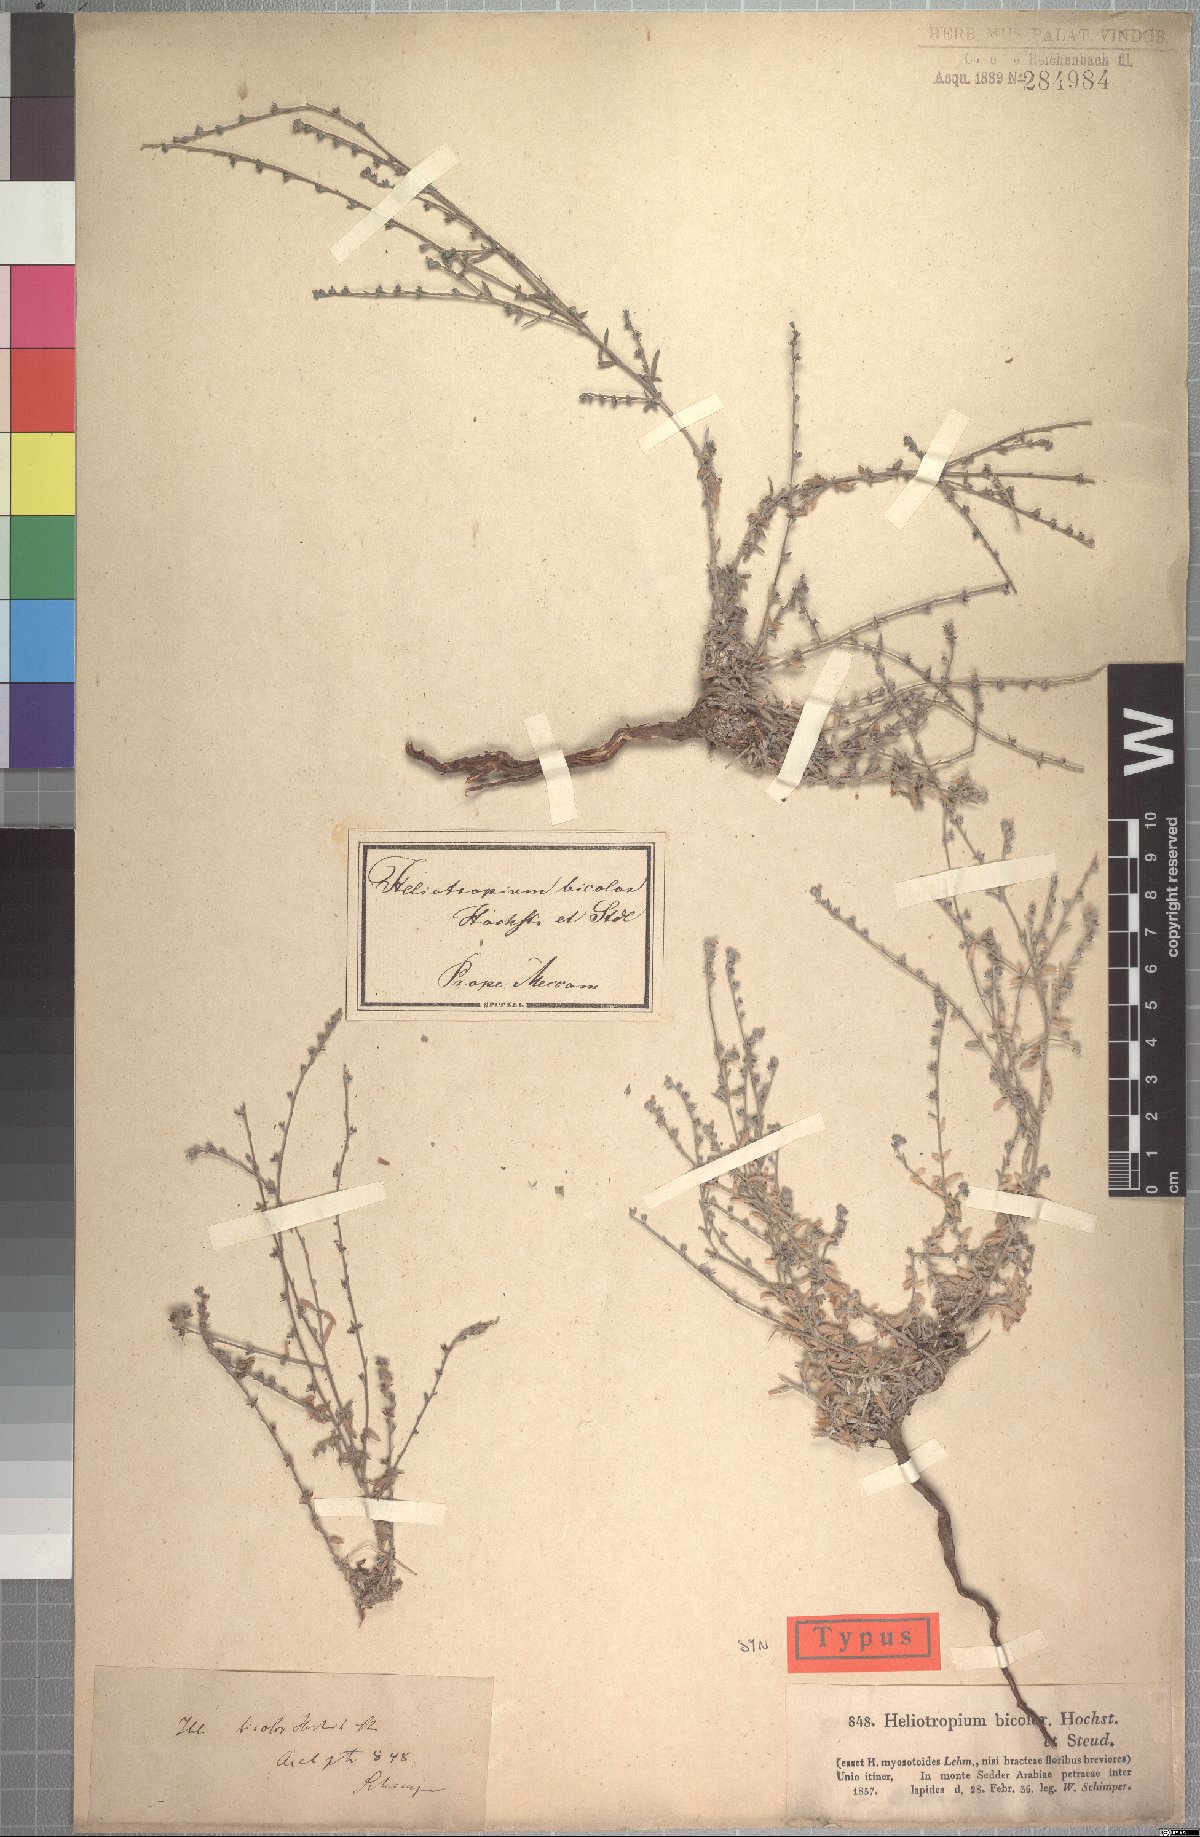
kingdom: Plantae
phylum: Tracheophyta
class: Magnoliopsida
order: Boraginales
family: Heliotropiaceae
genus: Euploca
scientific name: Euploca strigosa
